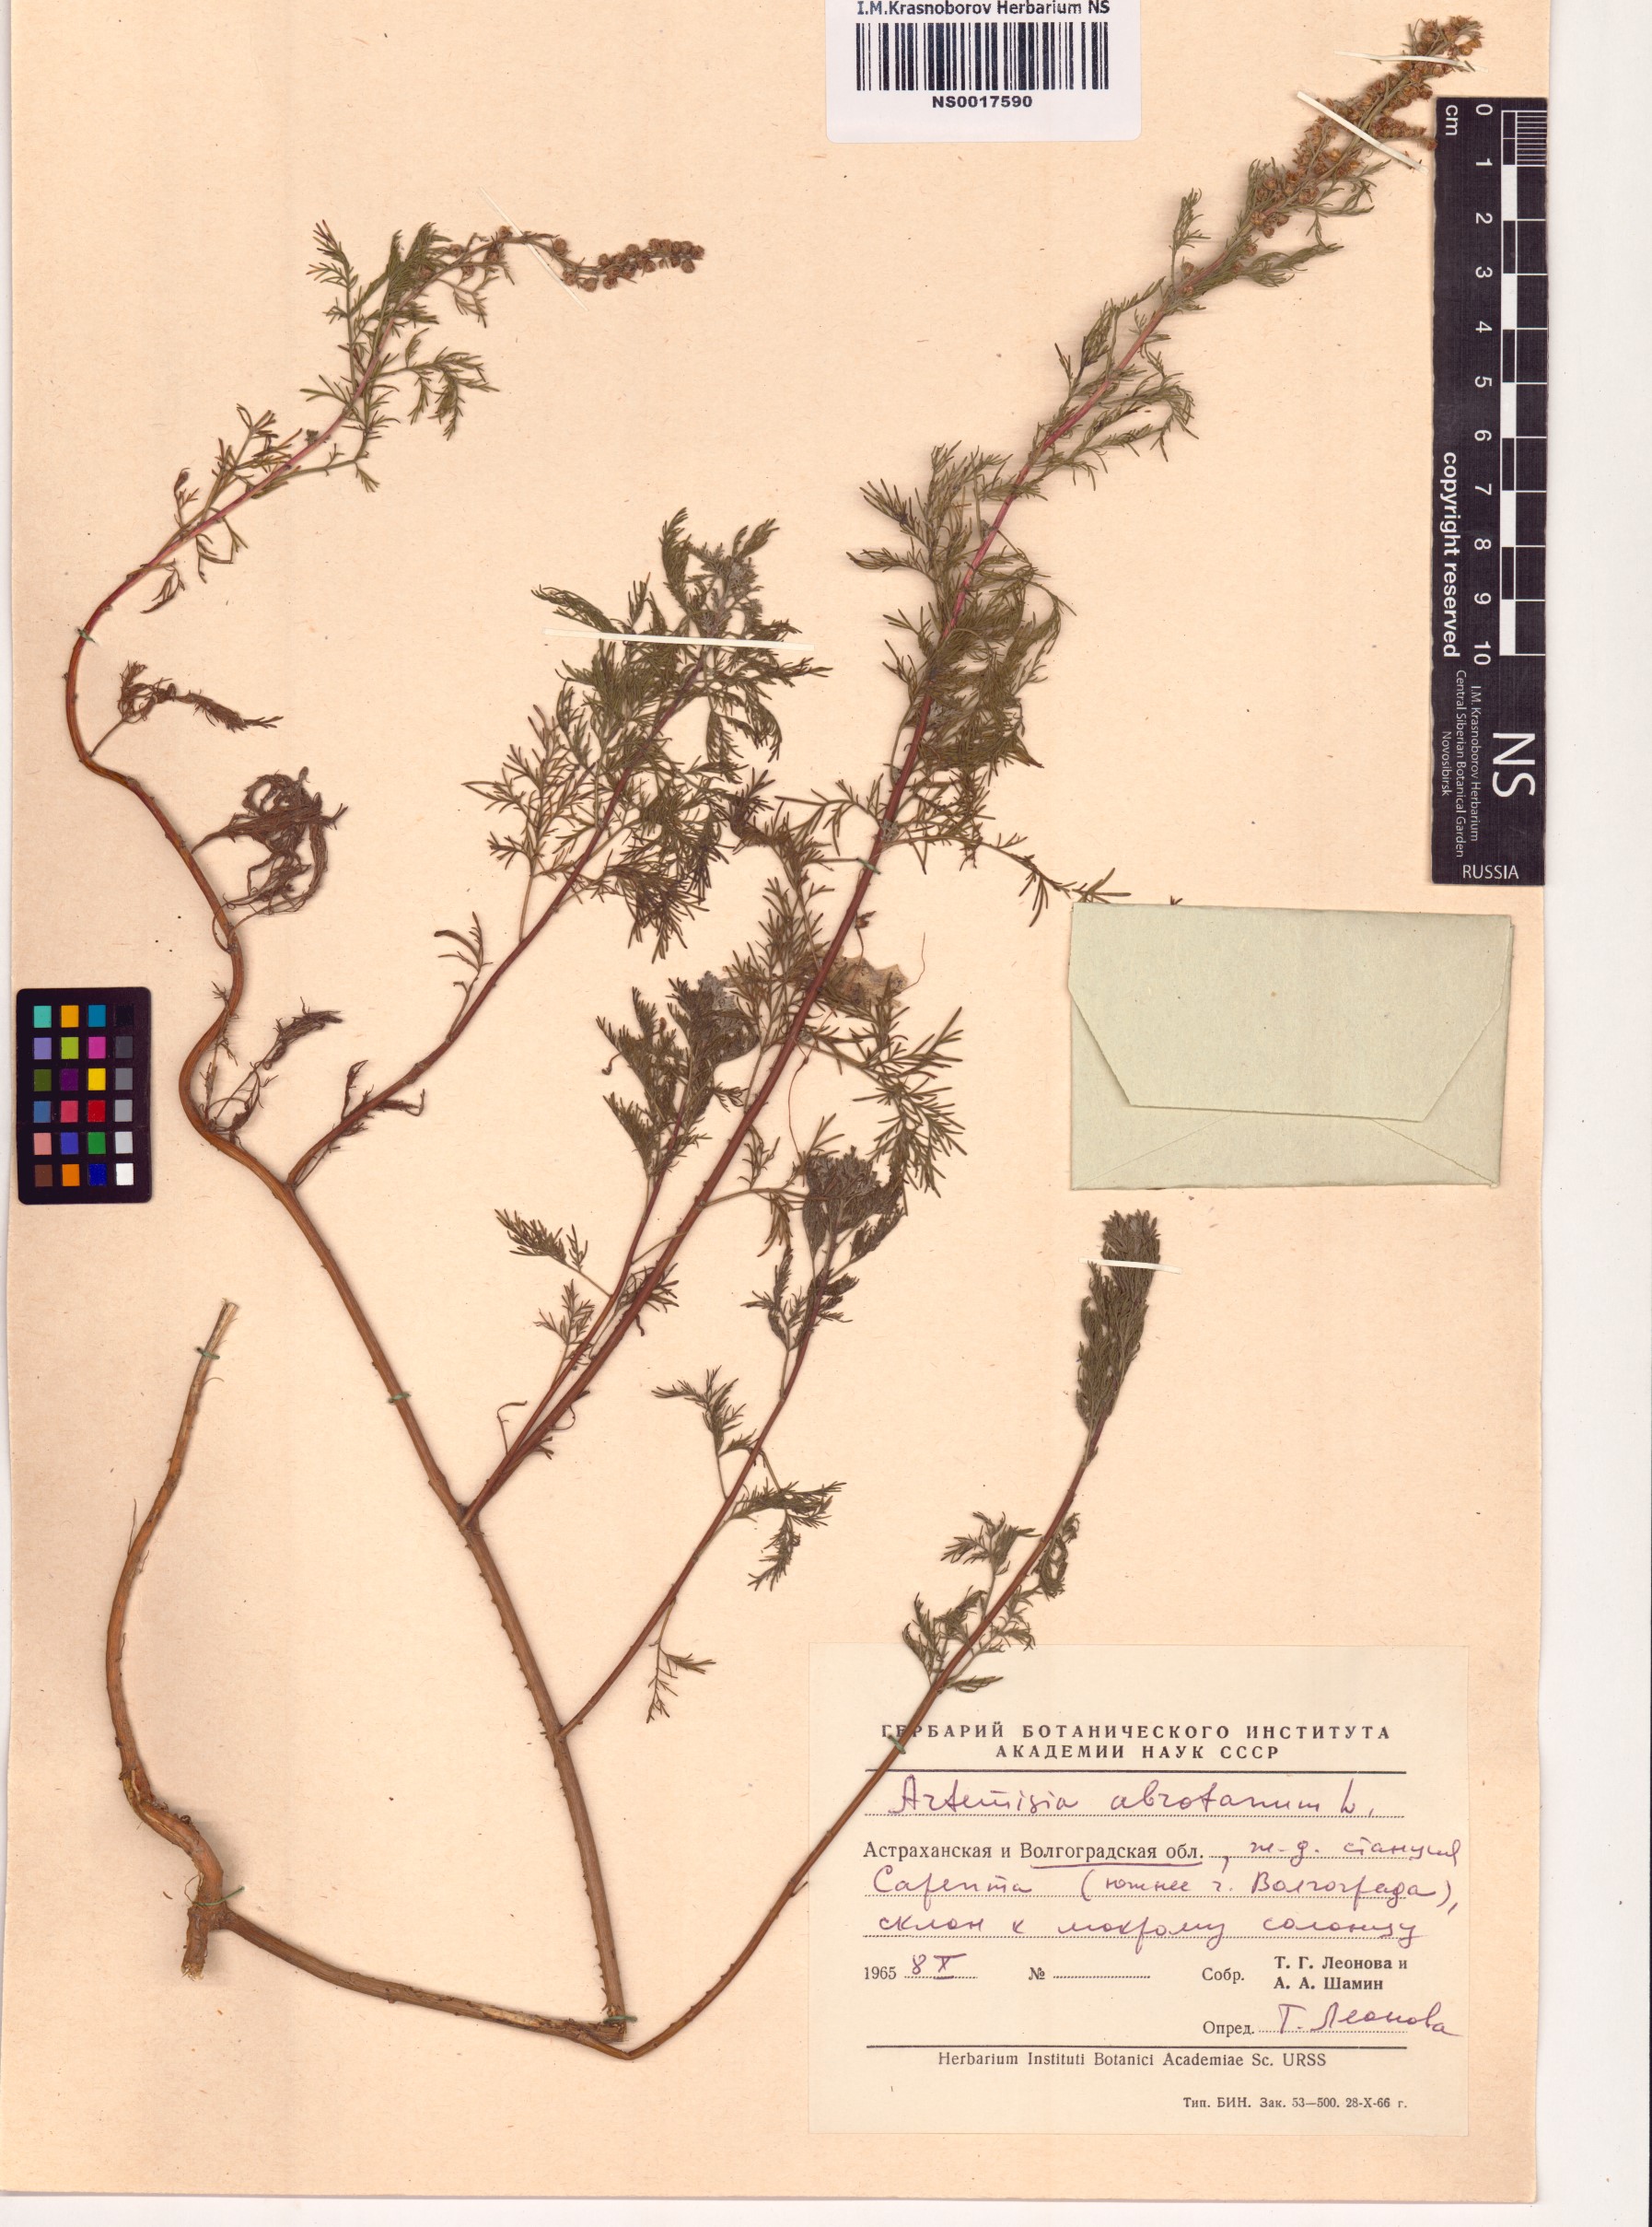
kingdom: Plantae
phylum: Tracheophyta
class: Magnoliopsida
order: Asterales
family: Asteraceae
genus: Artemisia
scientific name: Artemisia abrotanum
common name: Southernwood
